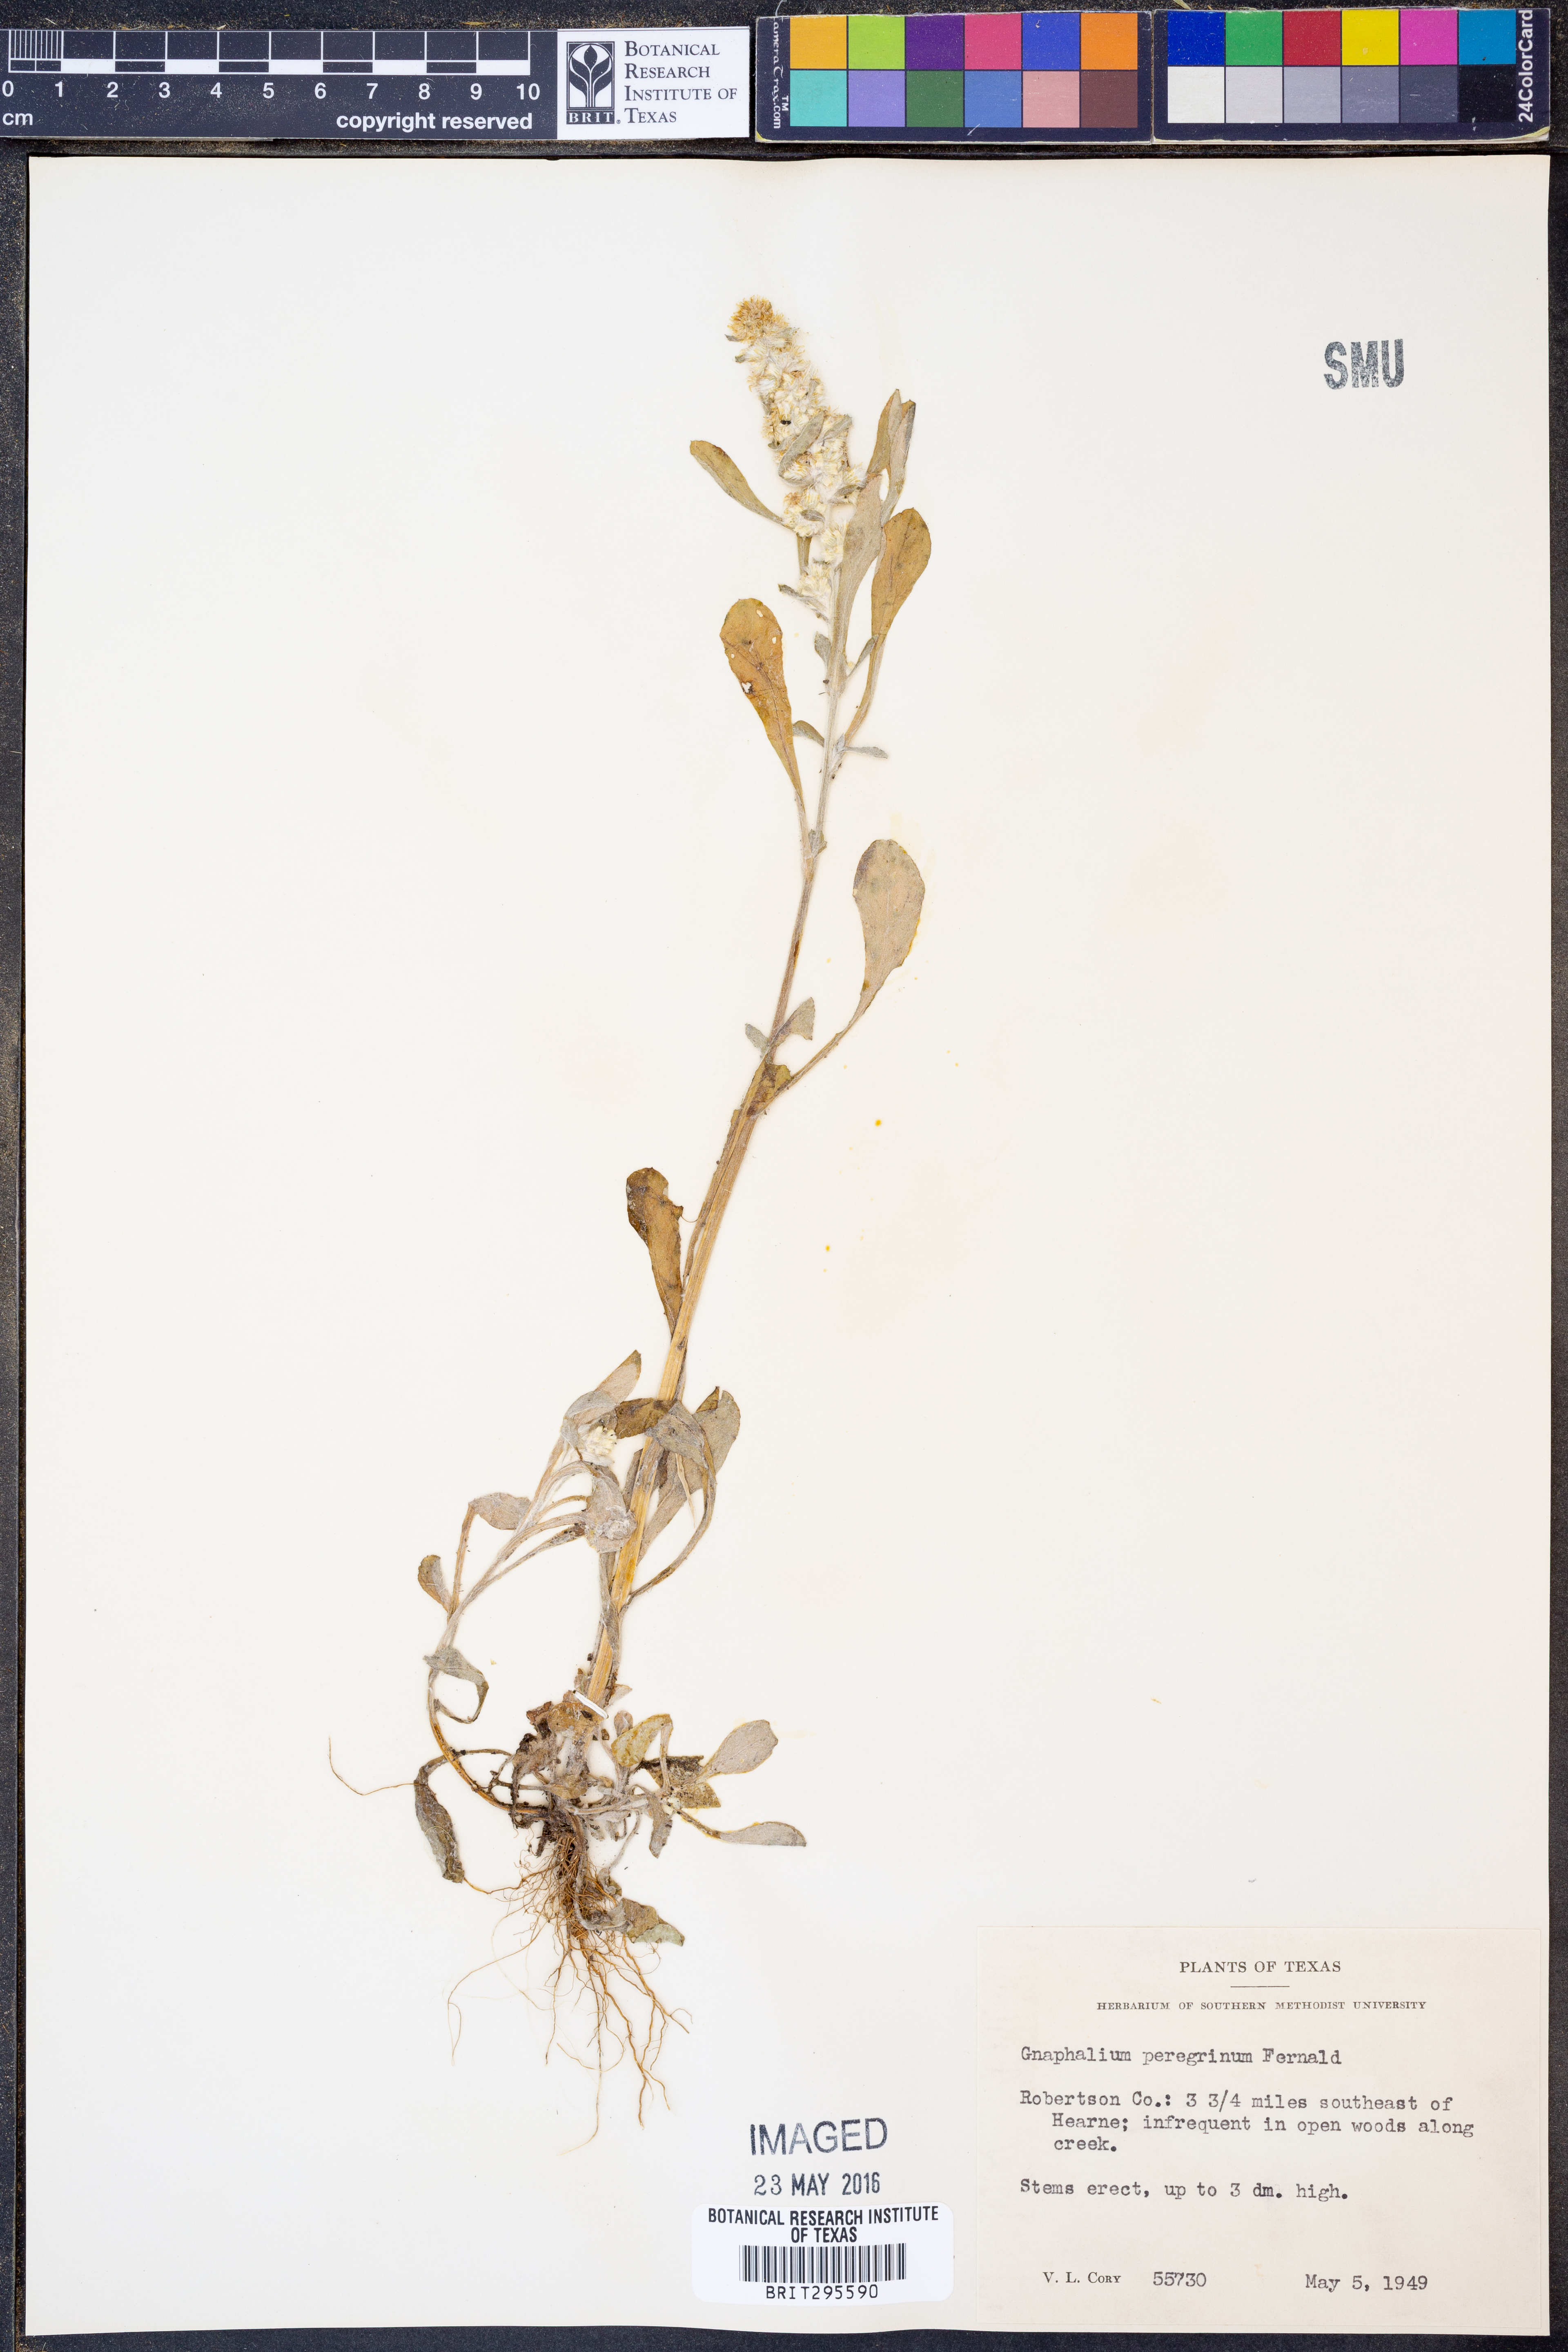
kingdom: Plantae
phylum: Tracheophyta
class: Magnoliopsida
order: Asterales
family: Asteraceae
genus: Gamochaeta
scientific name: Gamochaeta pensylvanica
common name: Pennsylvania everlasting
